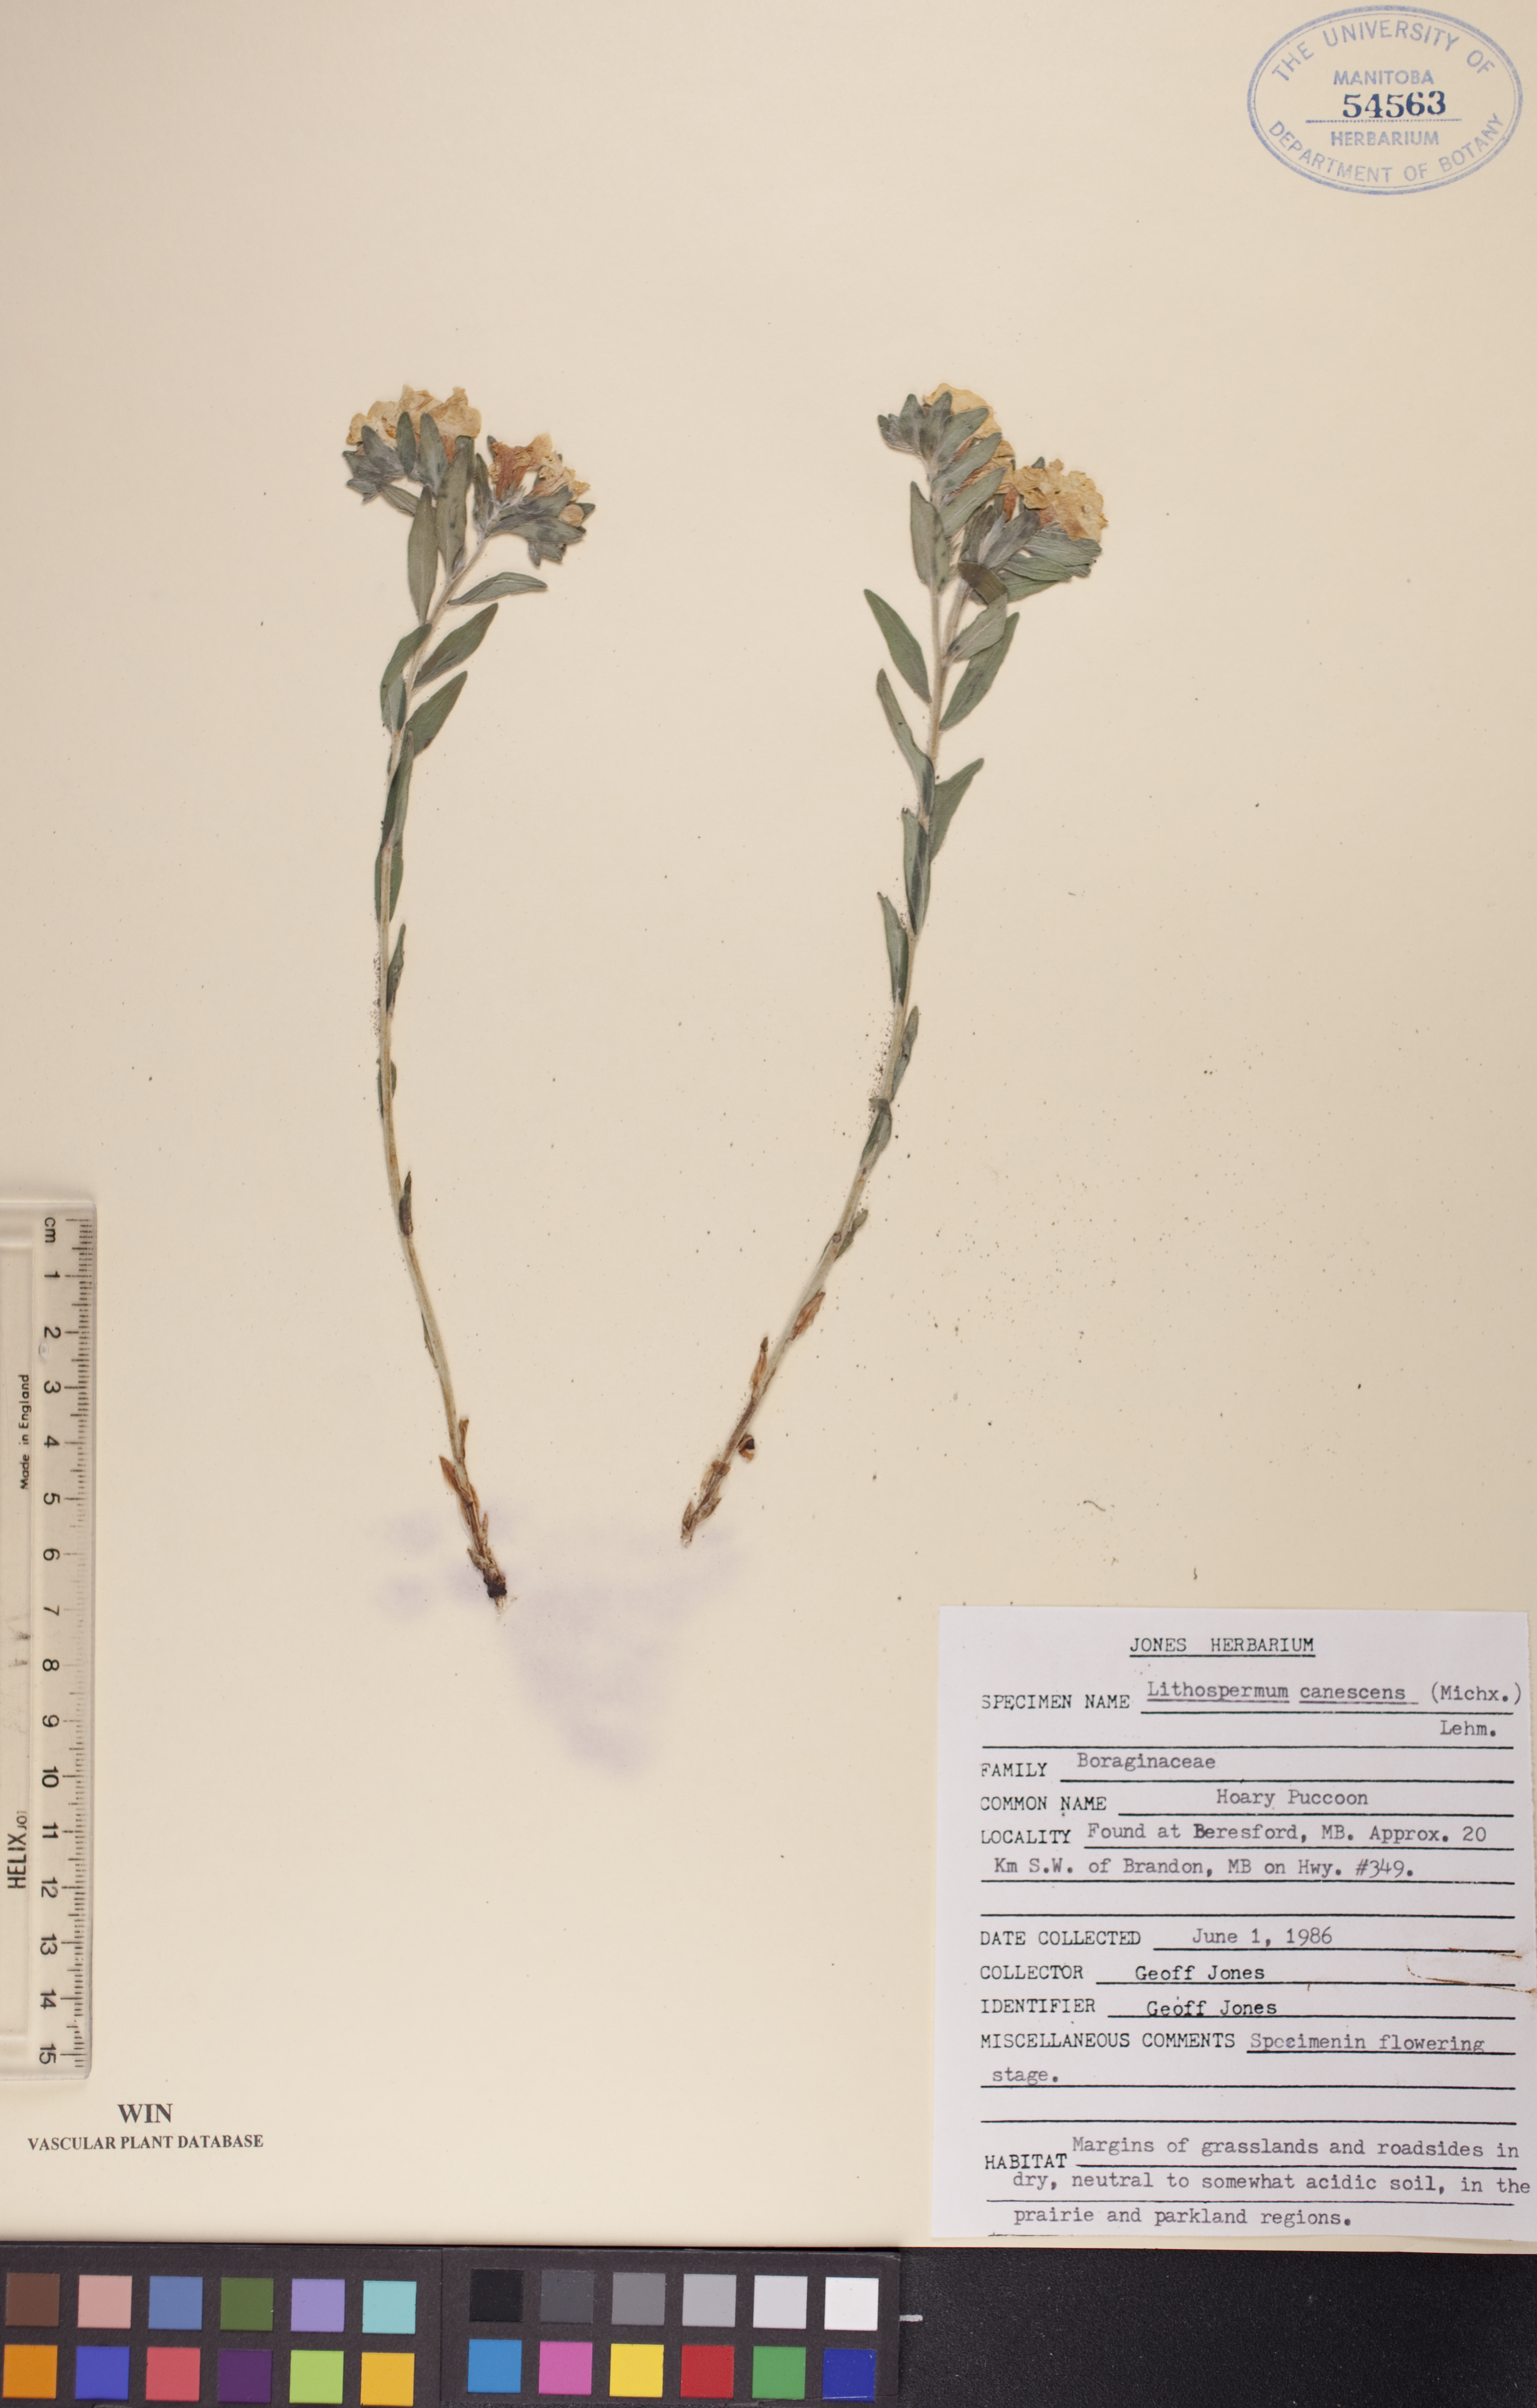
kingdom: Plantae
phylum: Tracheophyta
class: Magnoliopsida
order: Boraginales
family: Boraginaceae
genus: Lithospermum
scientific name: Lithospermum canescens
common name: Hoary puccoon
